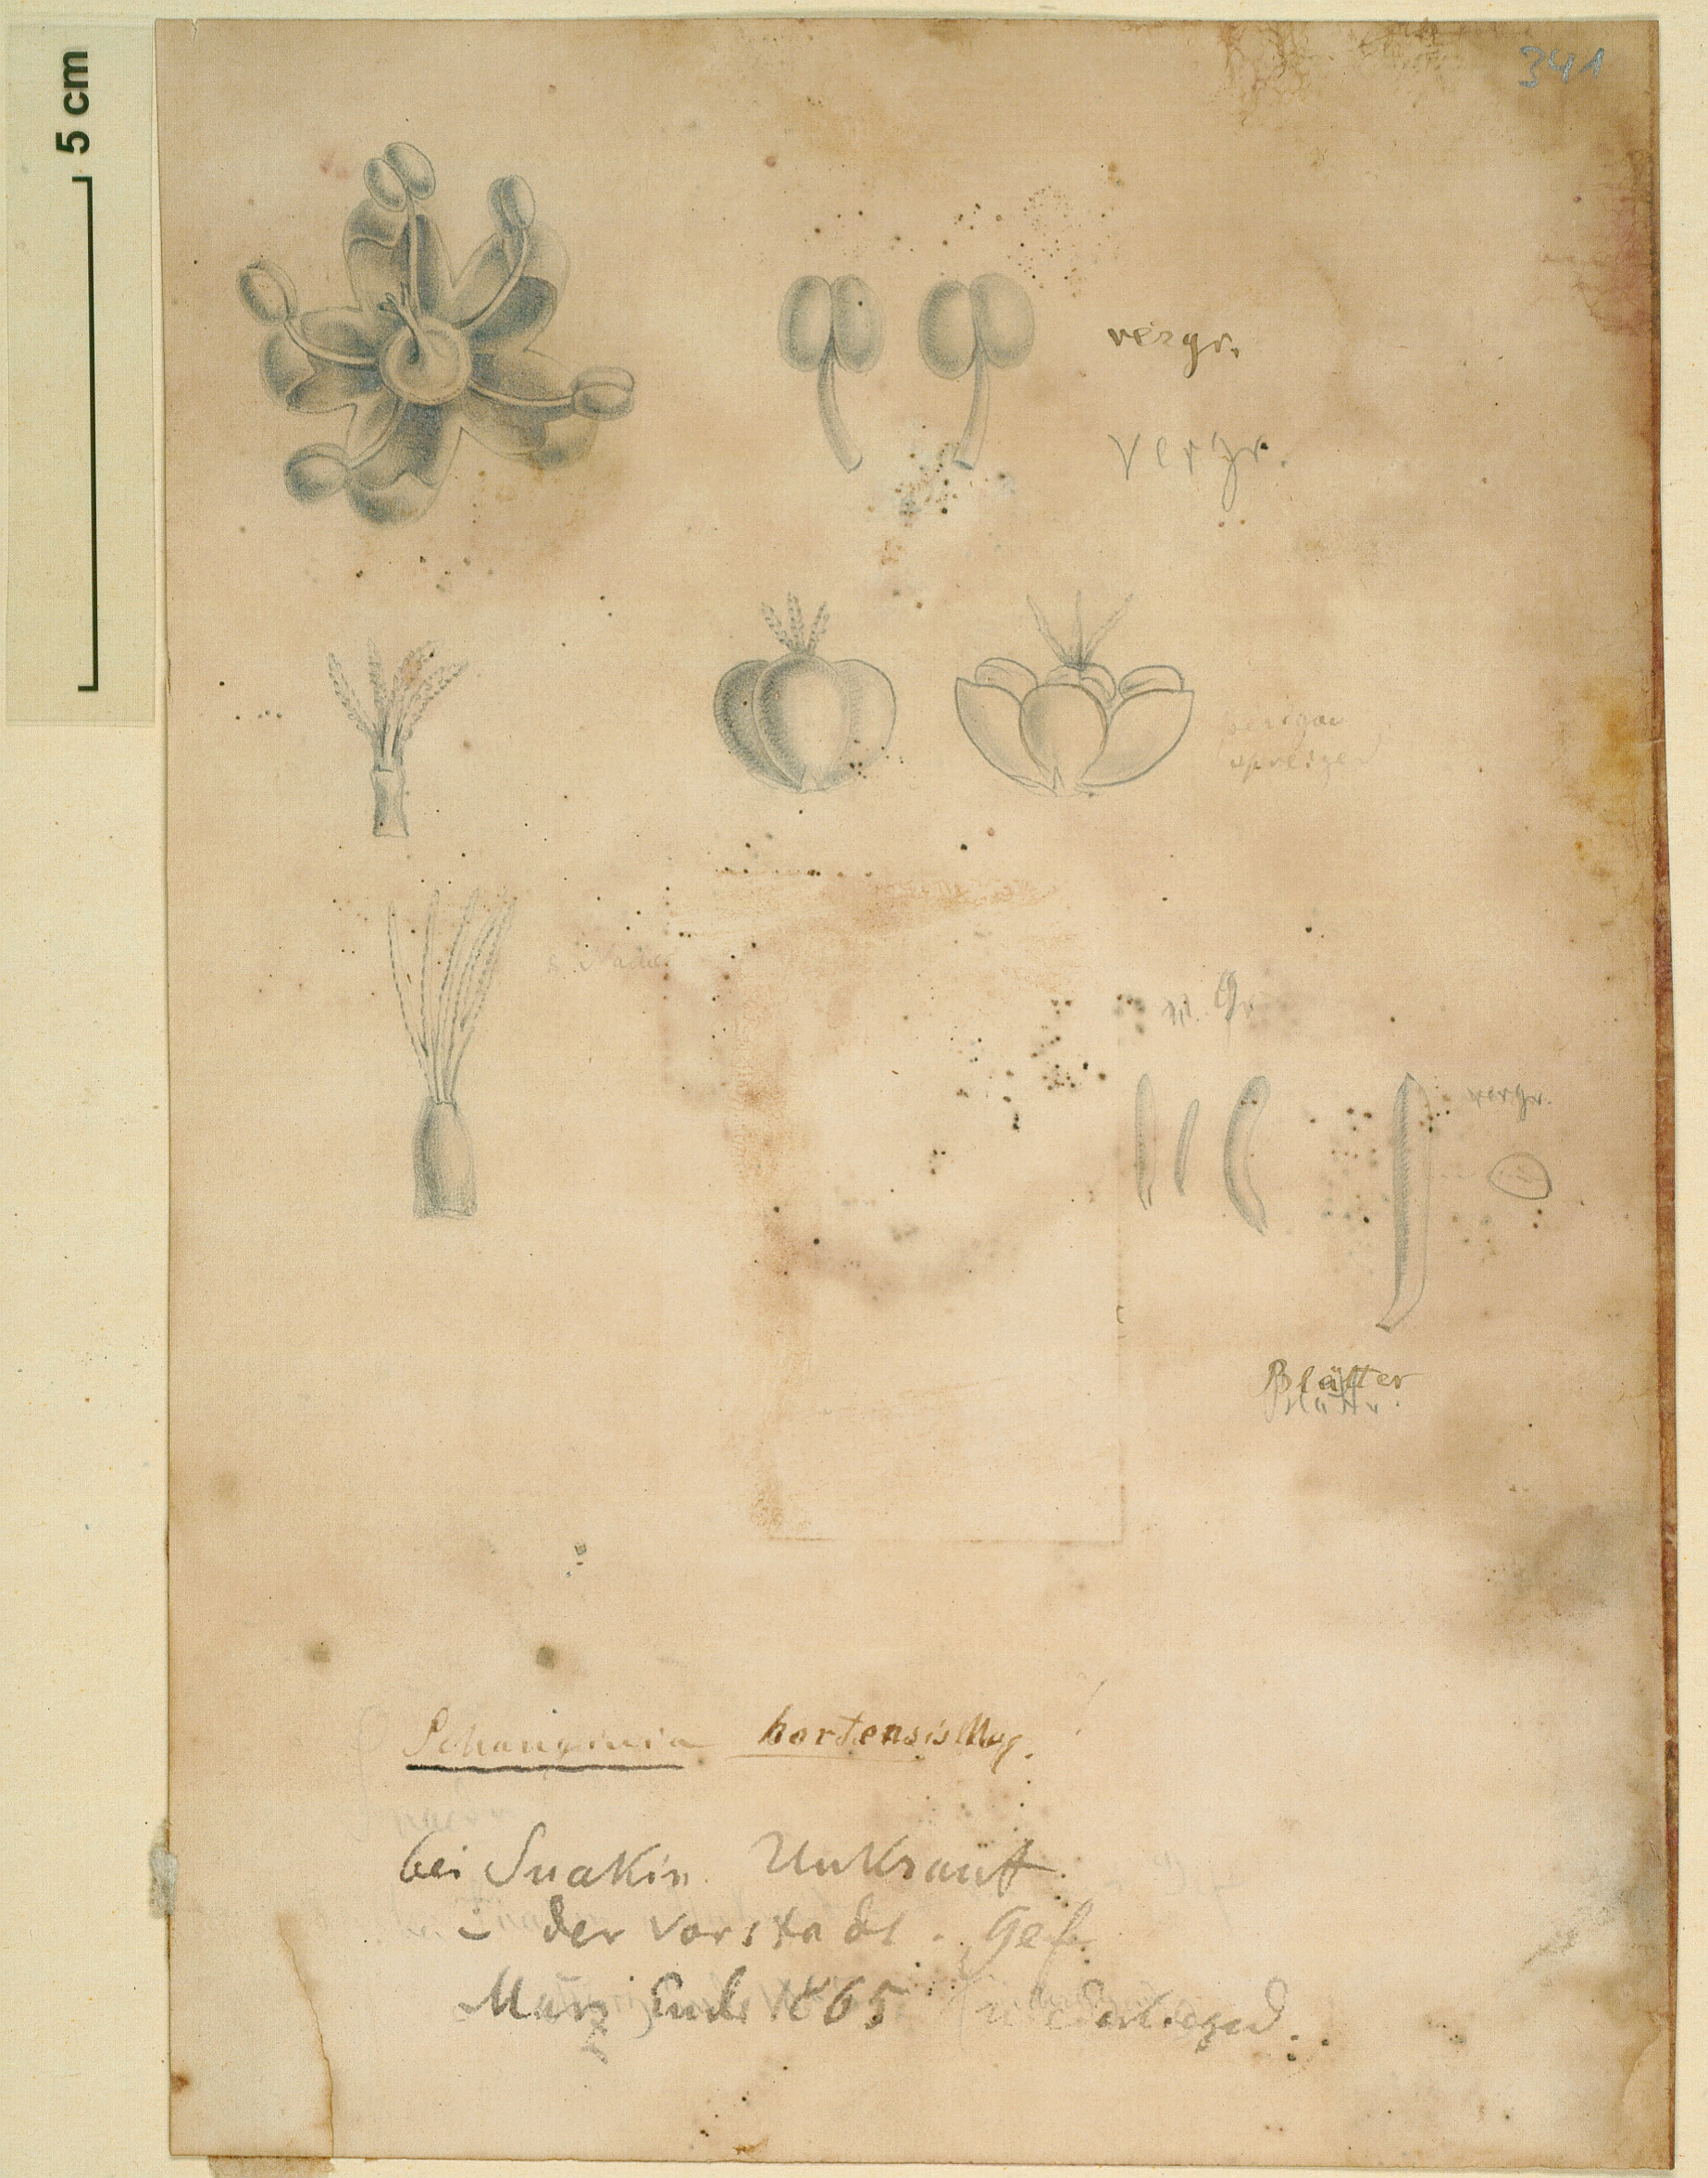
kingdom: Plantae
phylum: Tracheophyta
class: Magnoliopsida
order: Caryophyllales
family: Amaranthaceae
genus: Suaeda
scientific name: Suaeda aegyptiaca
